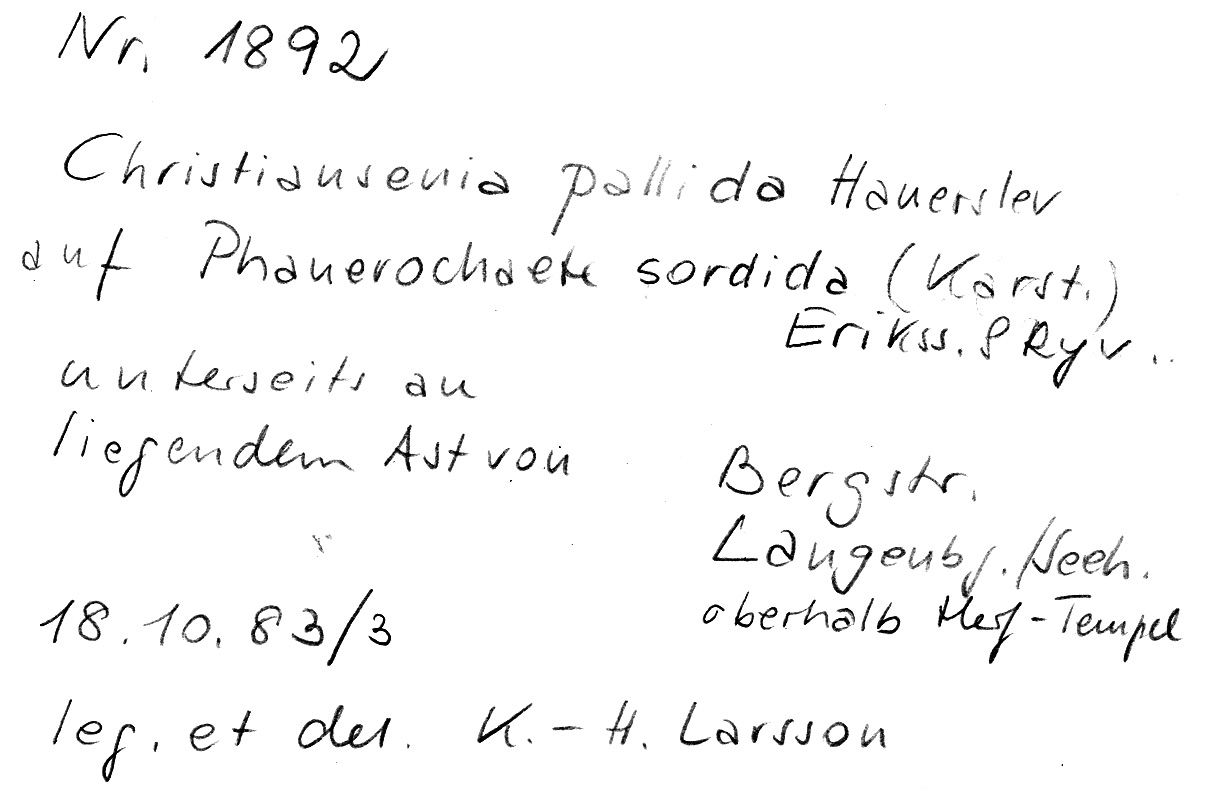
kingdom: Fungi
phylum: Basidiomycota
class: Tremellomycetes
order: Filobasidiales
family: Filobasidiaceae
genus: Syzygospora
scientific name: Syzygospora pallida
